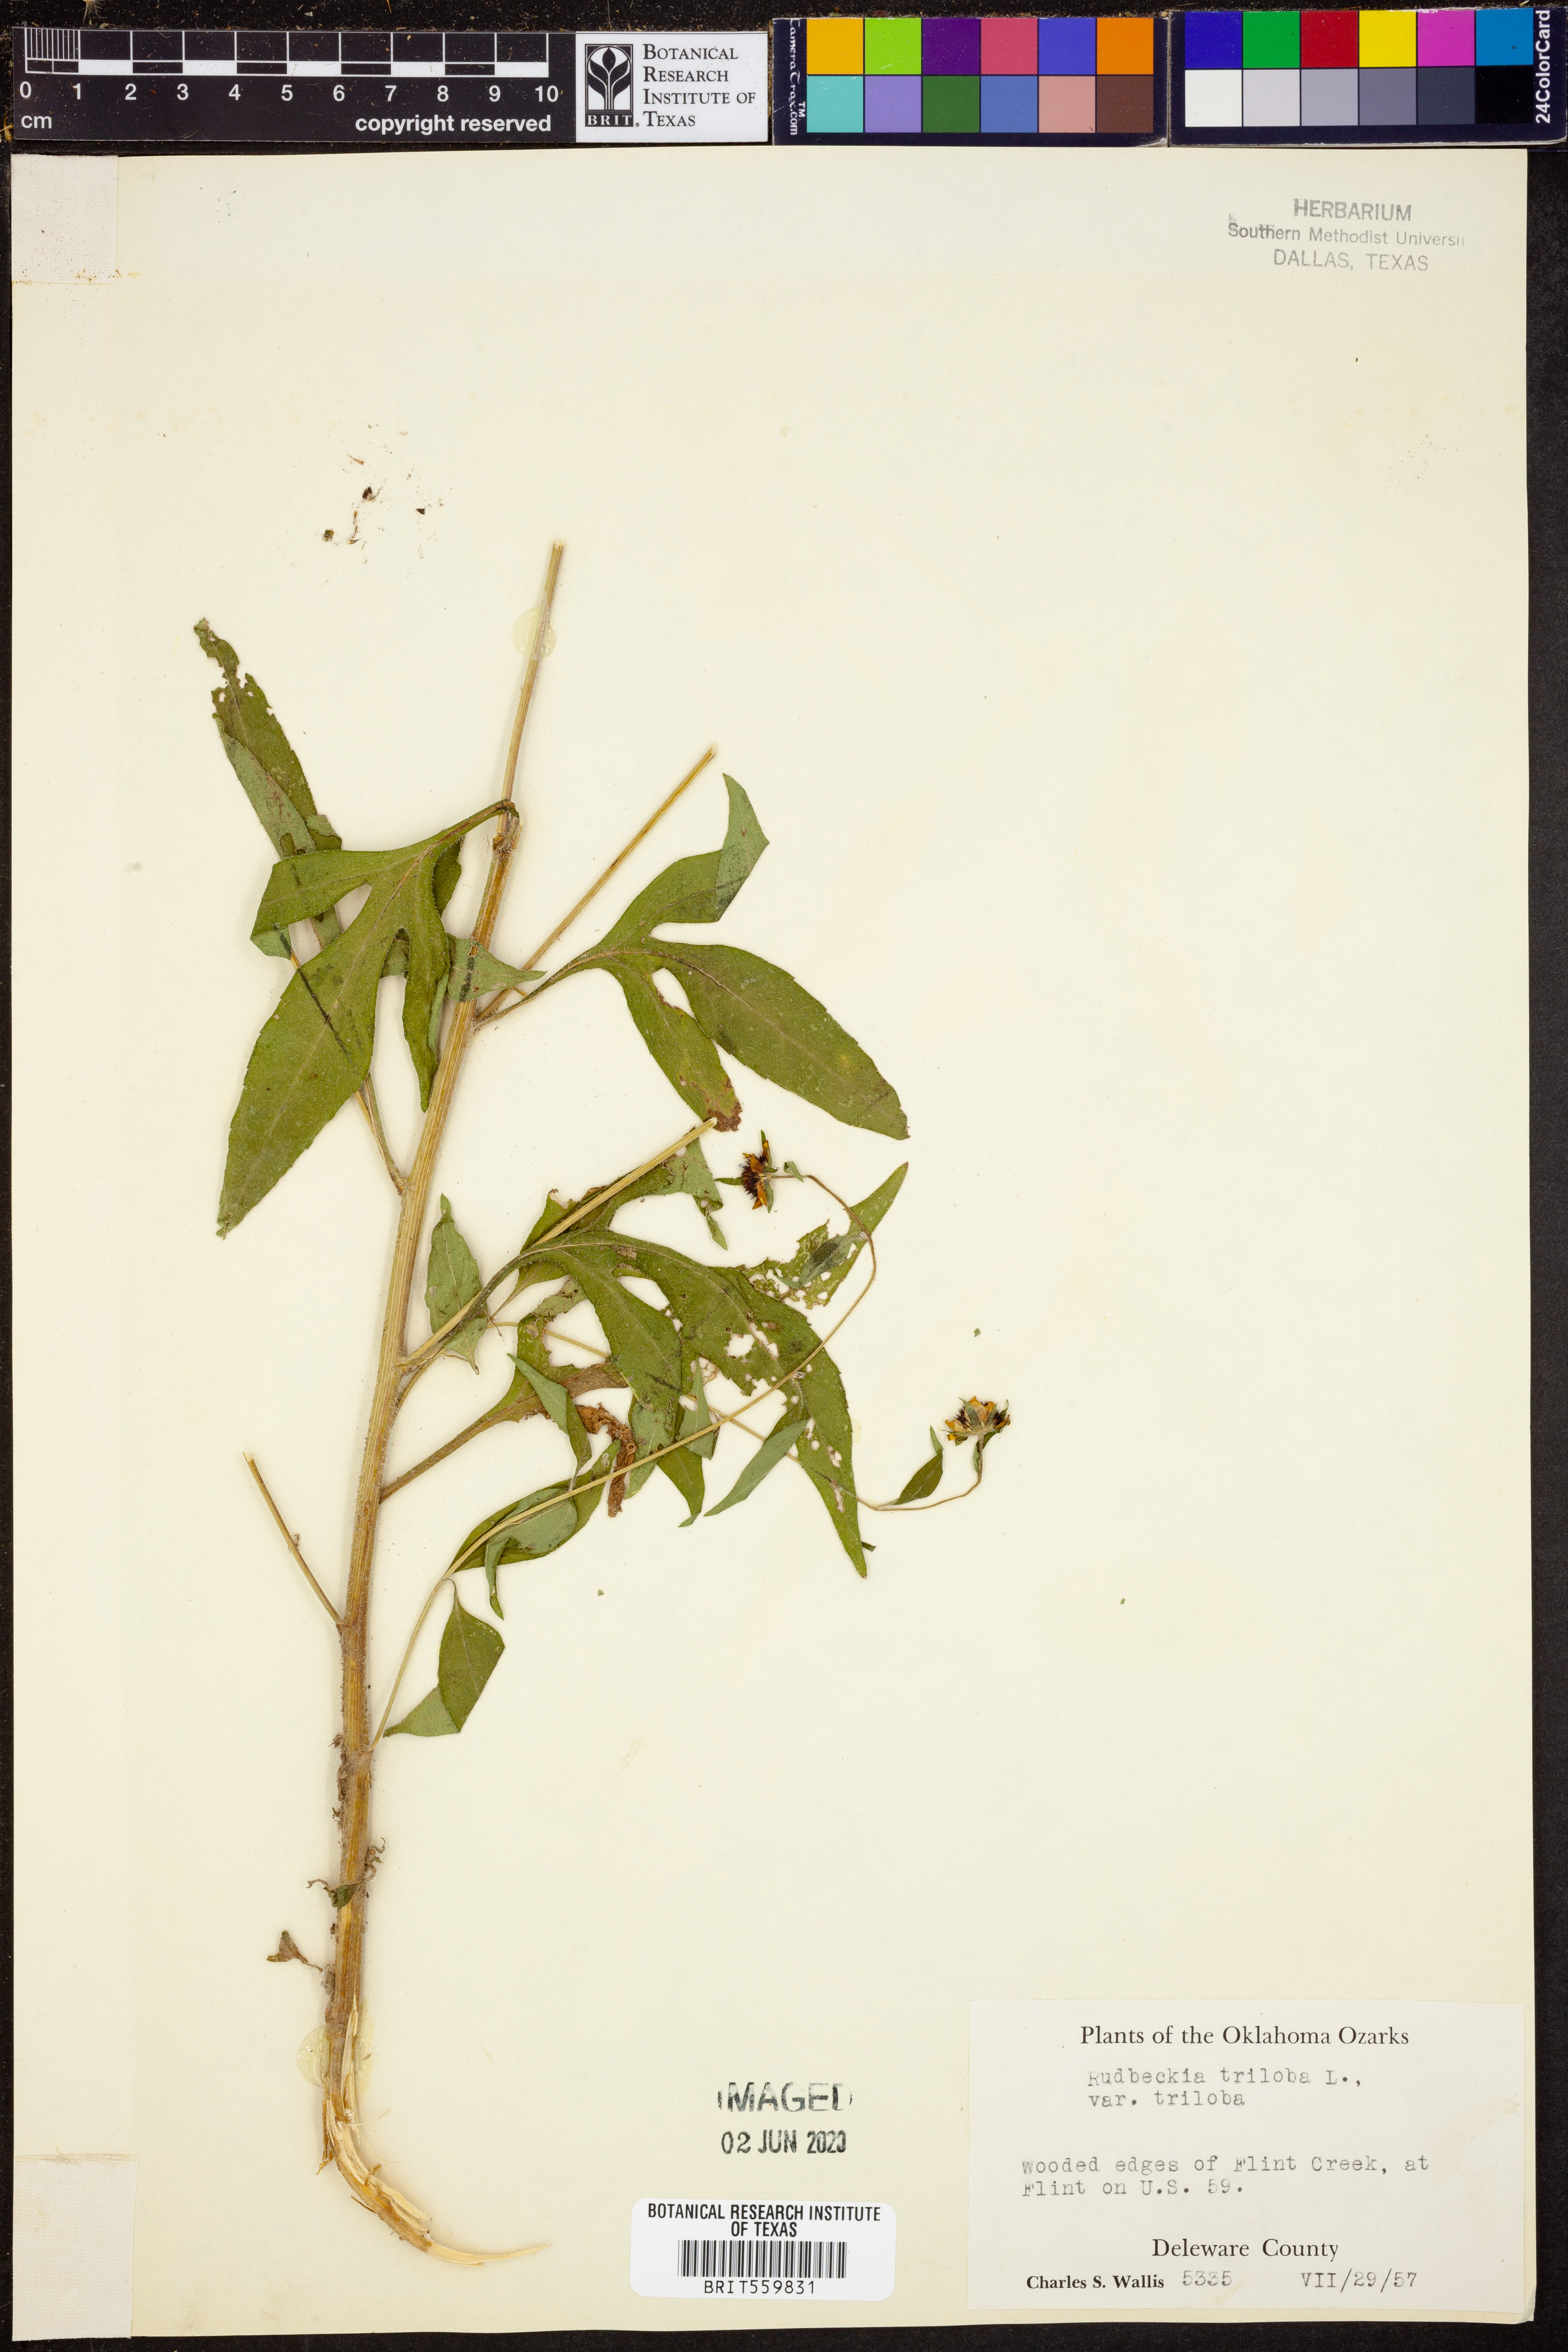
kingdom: Plantae
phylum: Tracheophyta
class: Magnoliopsida
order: Asterales
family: Asteraceae
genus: Rudbeckia
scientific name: Rudbeckia triloba
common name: Thin-leaved coneflower
